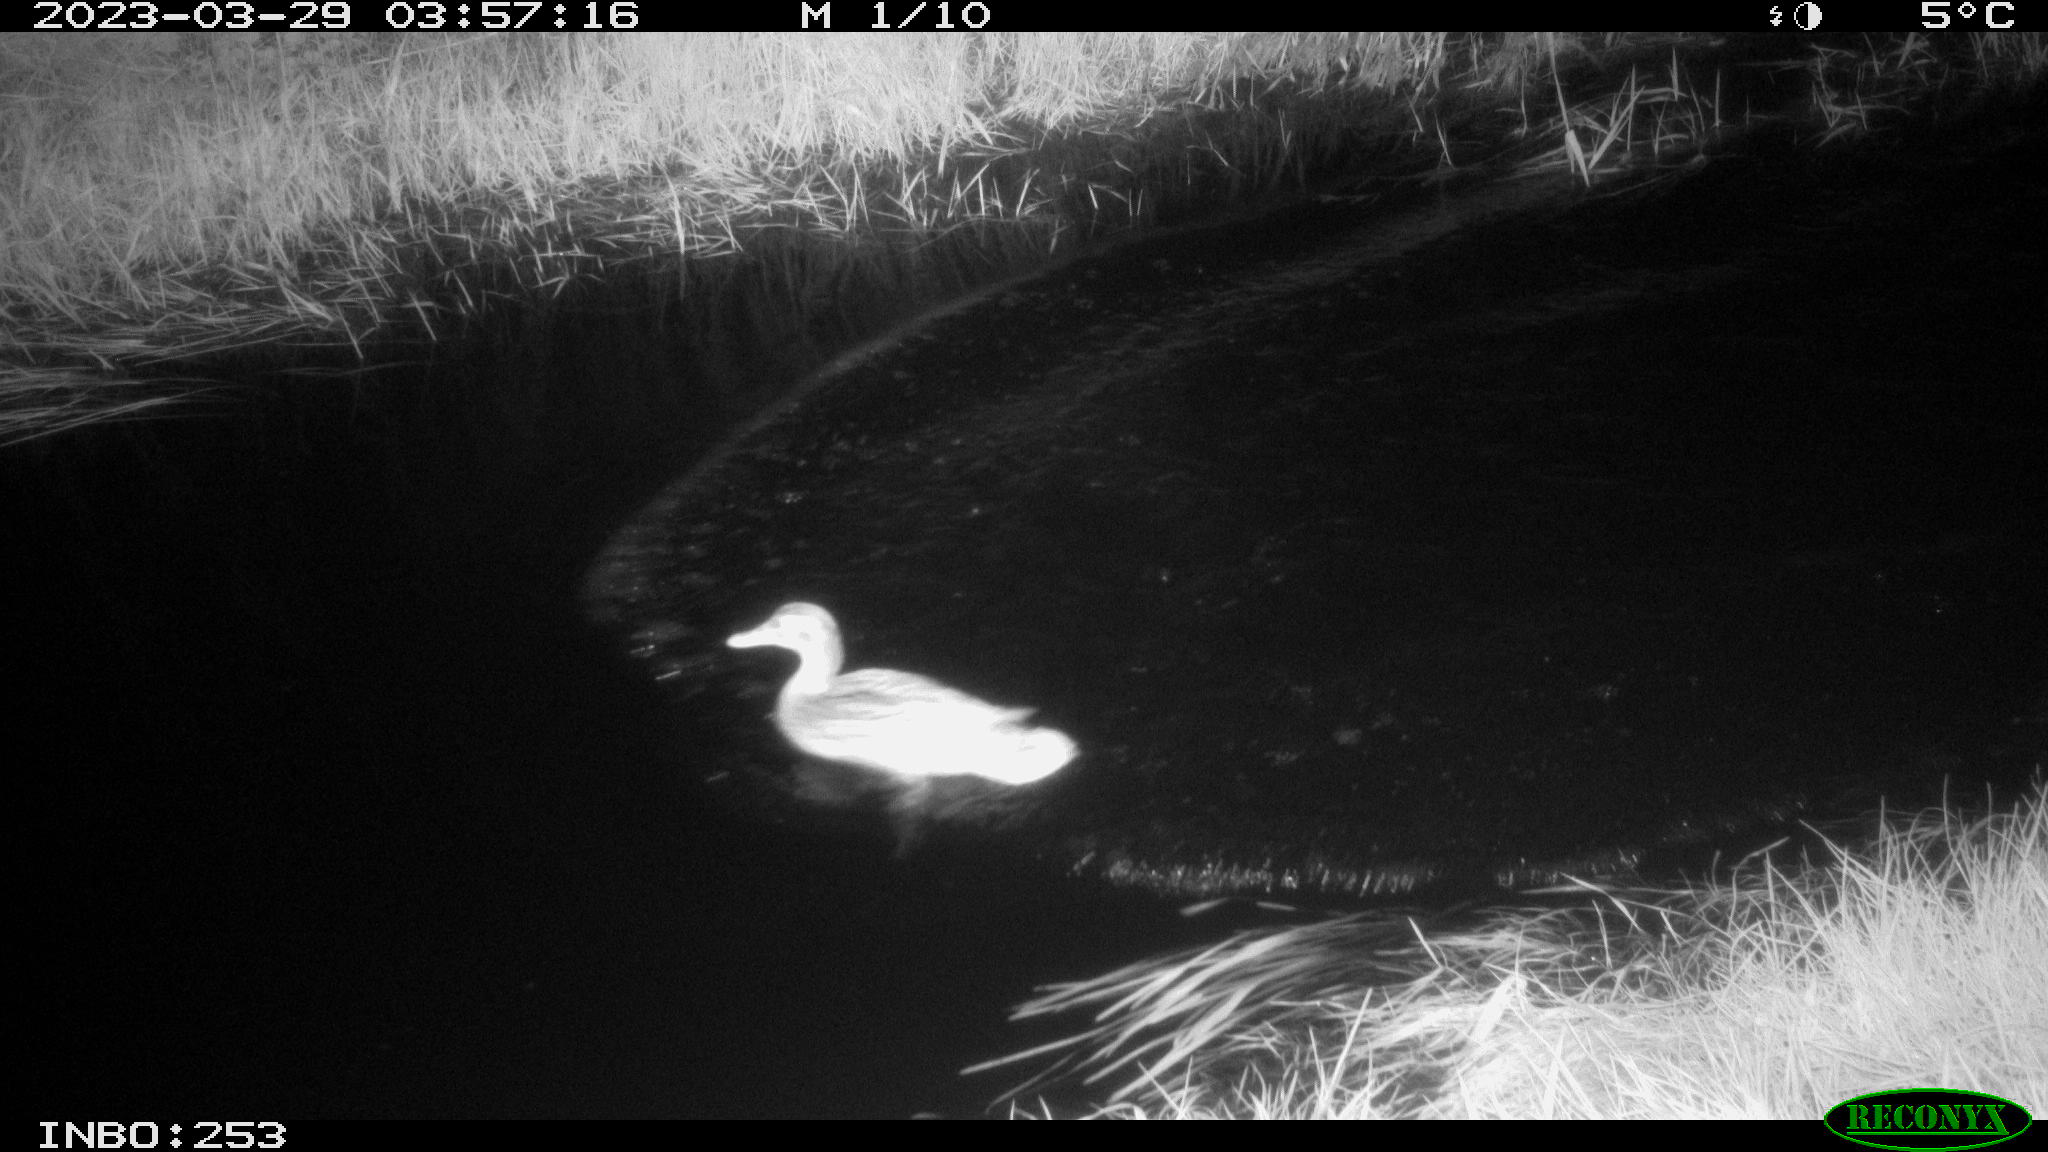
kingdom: Animalia
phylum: Chordata
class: Aves
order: Anseriformes
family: Anatidae
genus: Anas
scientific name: Anas
